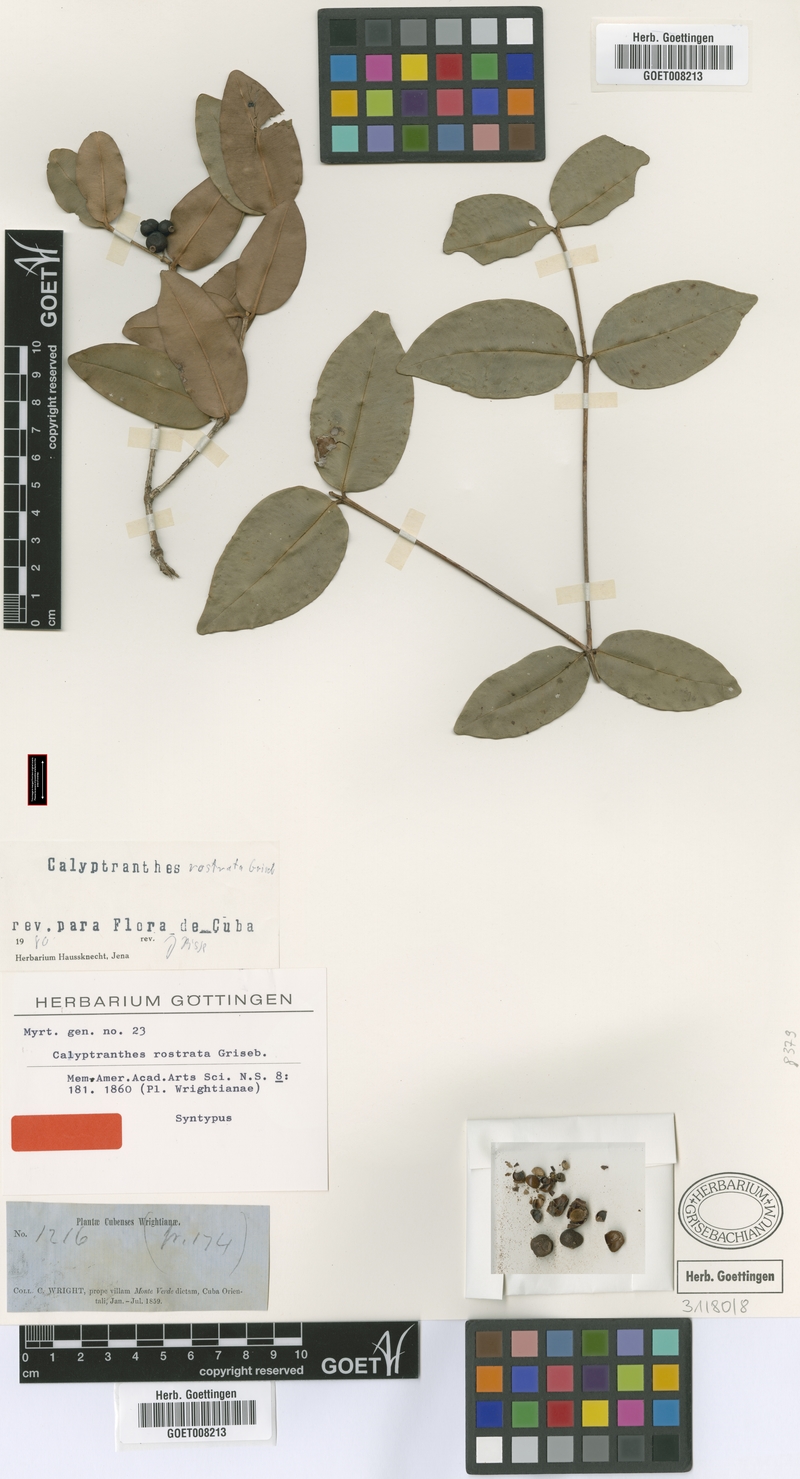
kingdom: Plantae
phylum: Tracheophyta
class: Magnoliopsida
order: Myrtales
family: Myrtaceae
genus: Myrcia
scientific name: Myrcia adunca
